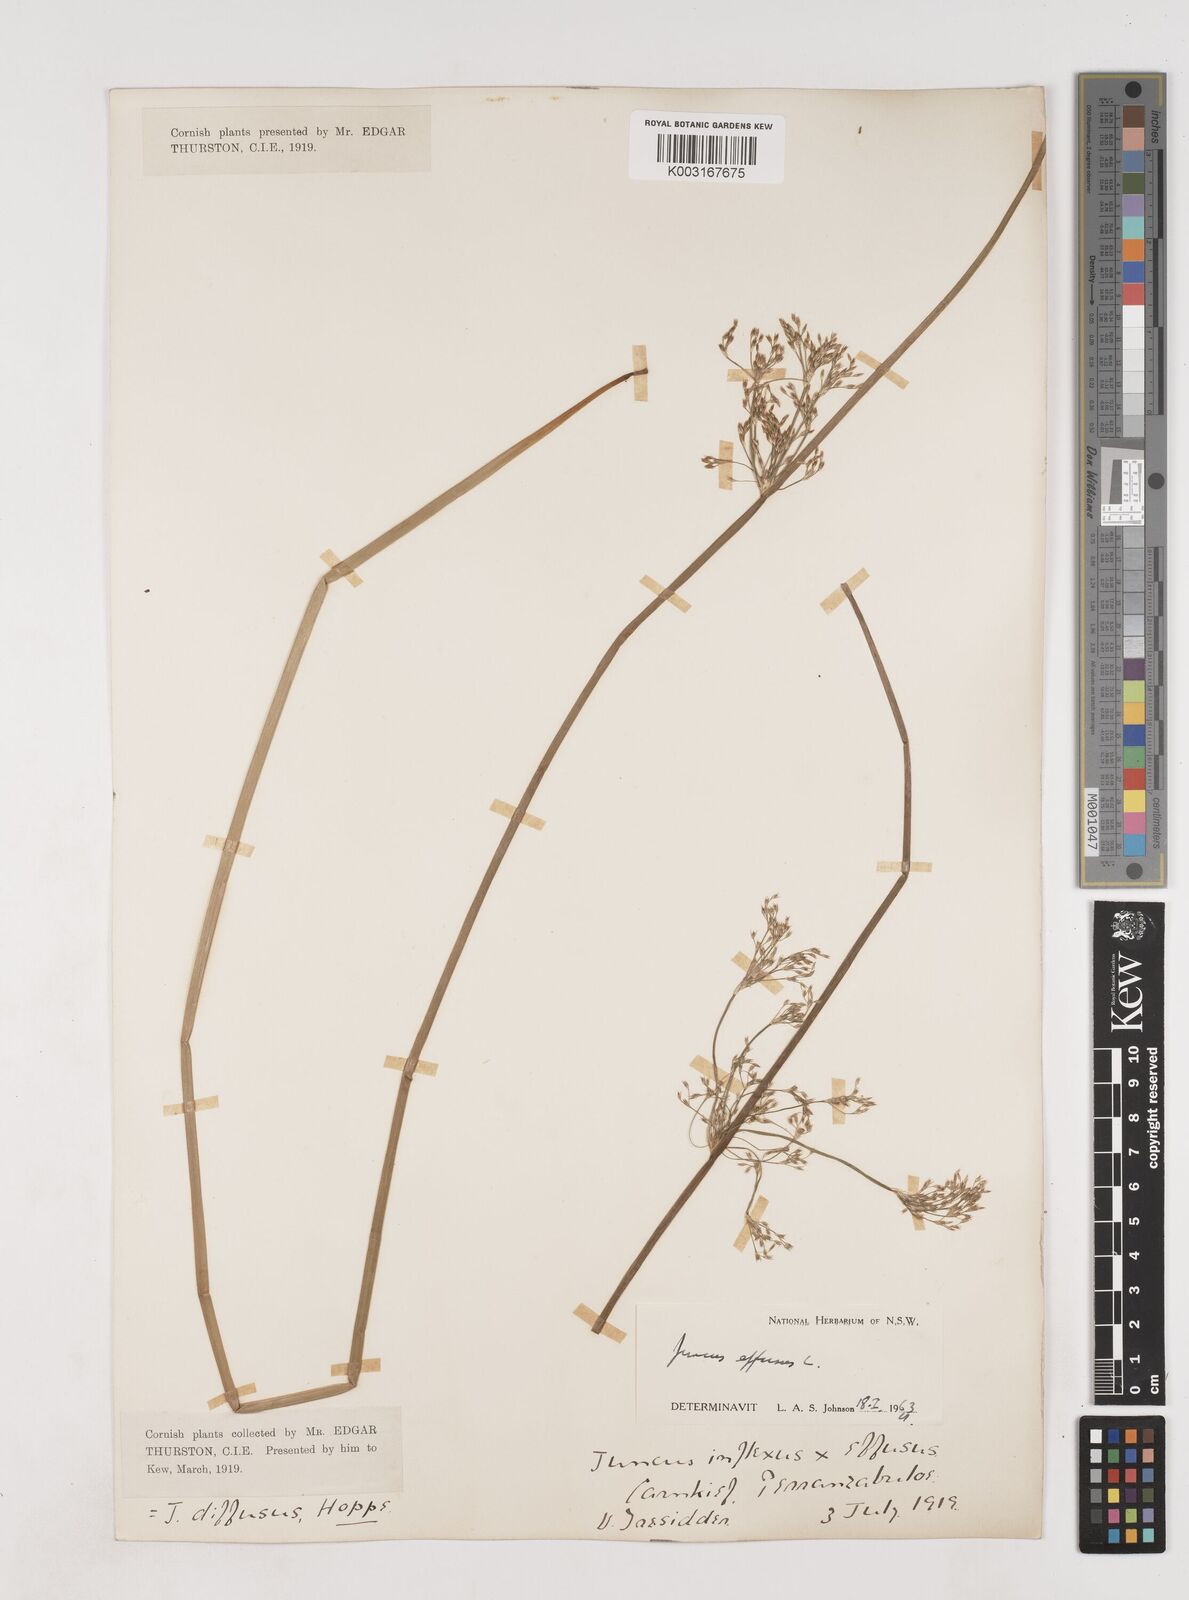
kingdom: Plantae
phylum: Tracheophyta
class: Liliopsida
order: Poales
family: Juncaceae
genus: Juncus
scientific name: Juncus effusus
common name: Soft rush
